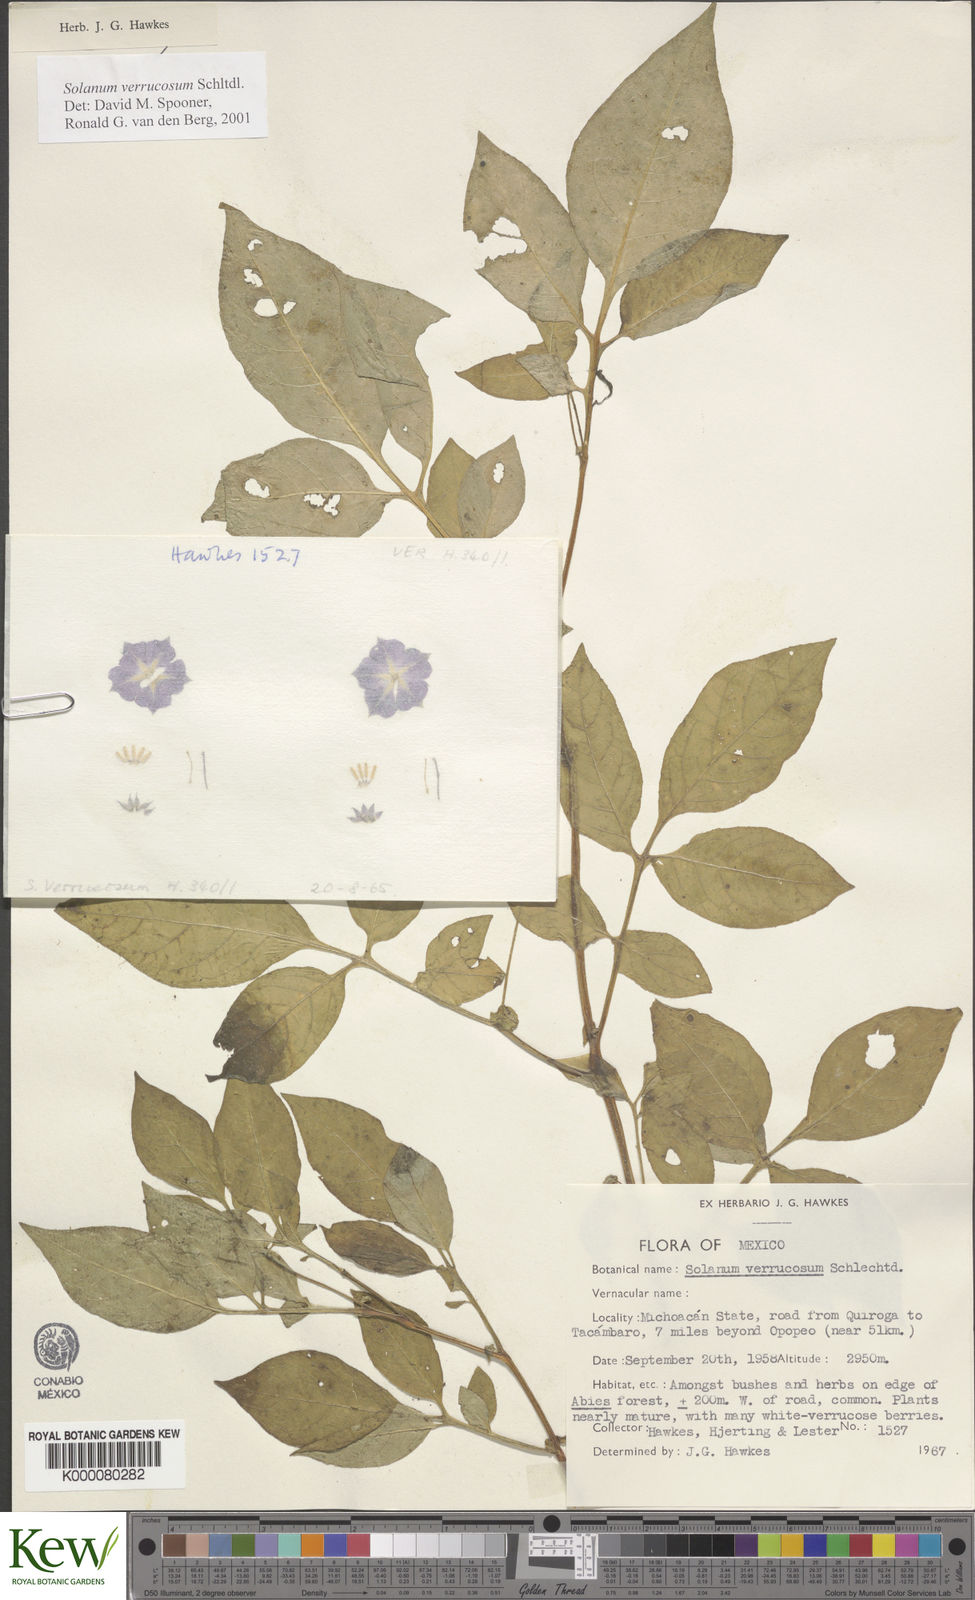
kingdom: Plantae
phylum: Tracheophyta
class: Magnoliopsida
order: Solanales
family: Solanaceae
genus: Solanum
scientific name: Solanum verrucosum
